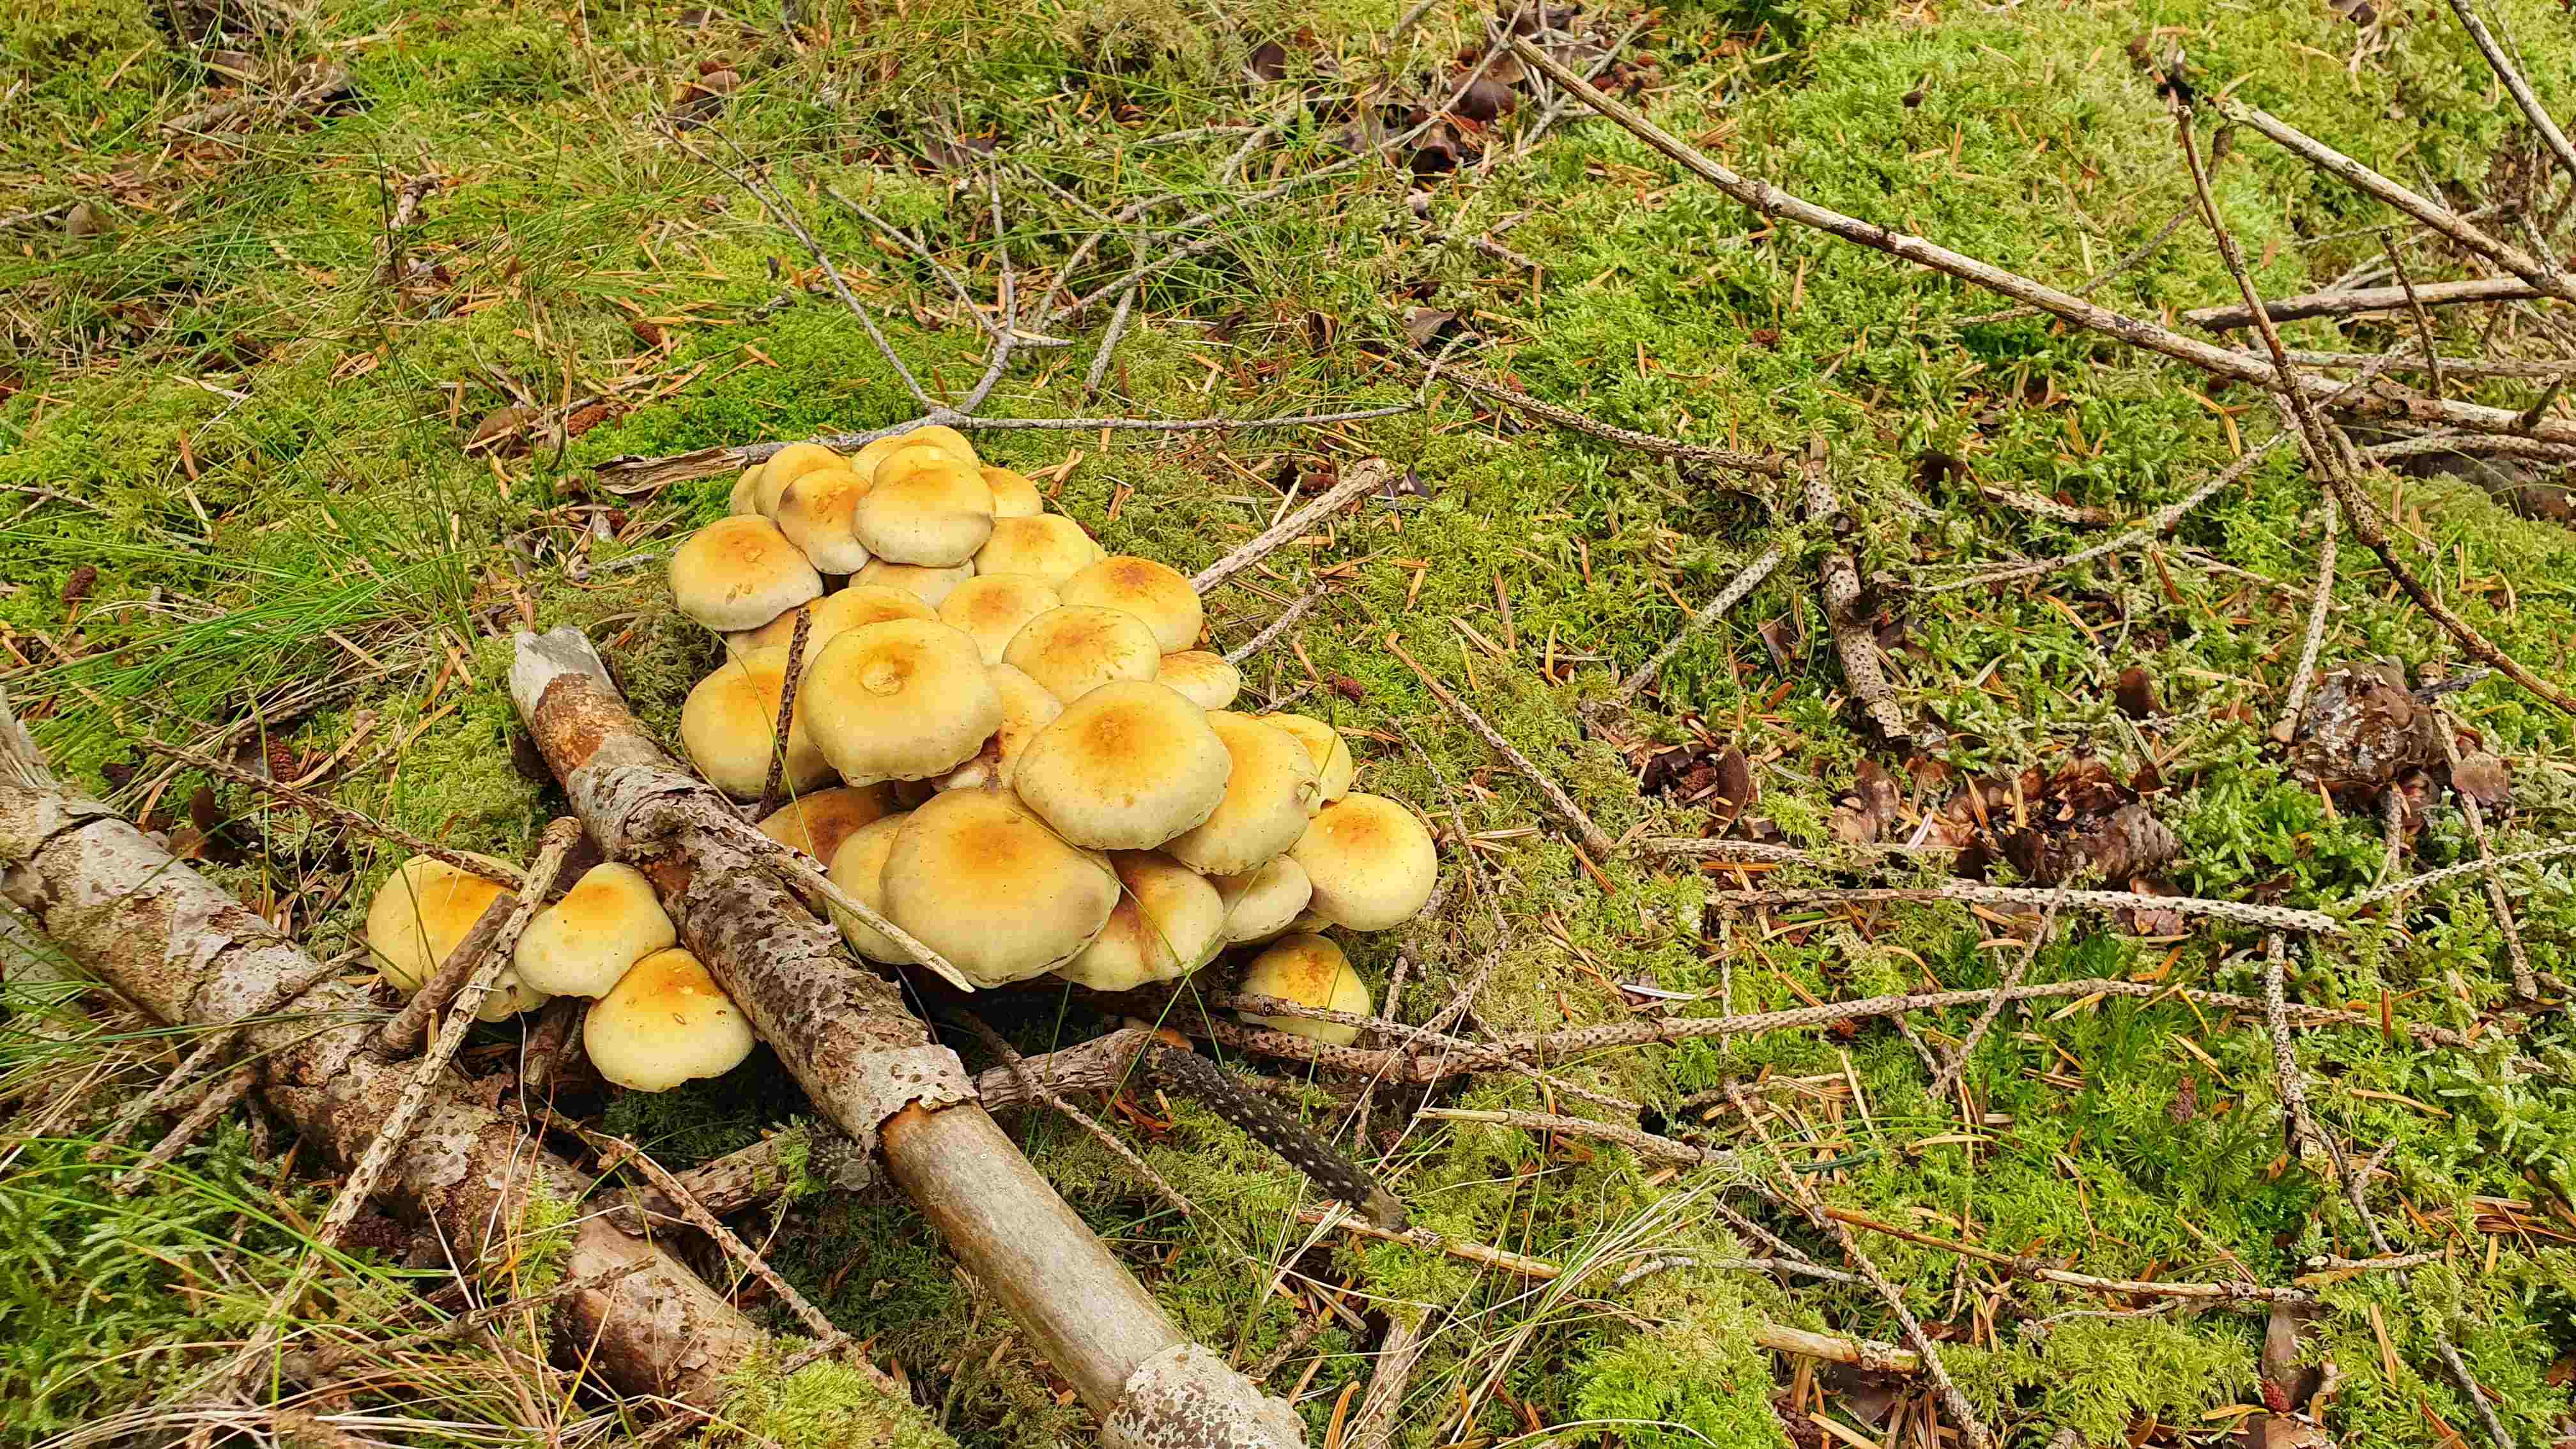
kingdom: Fungi
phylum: Basidiomycota
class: Agaricomycetes
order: Agaricales
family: Strophariaceae
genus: Hypholoma
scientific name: Hypholoma
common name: svovlhat
